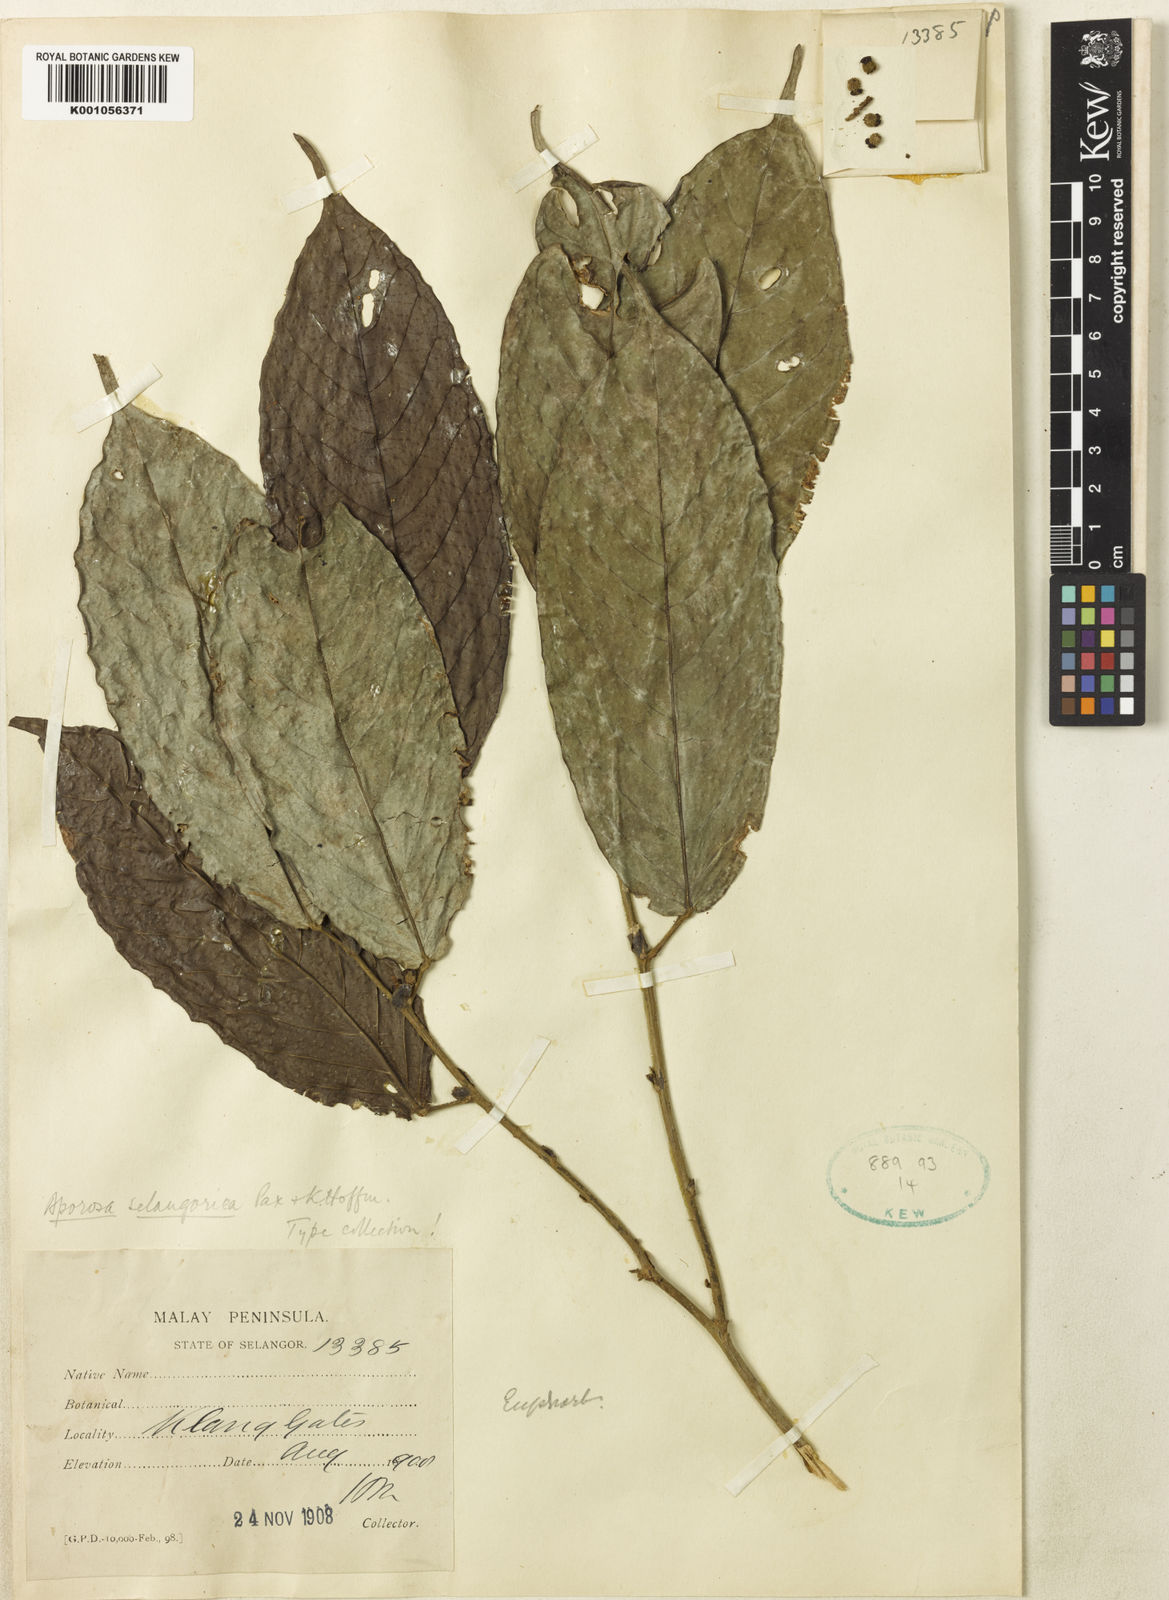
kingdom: Plantae
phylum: Tracheophyta
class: Magnoliopsida
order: Malpighiales
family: Phyllanthaceae
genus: Aporosa
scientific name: Aporosa selangorica
